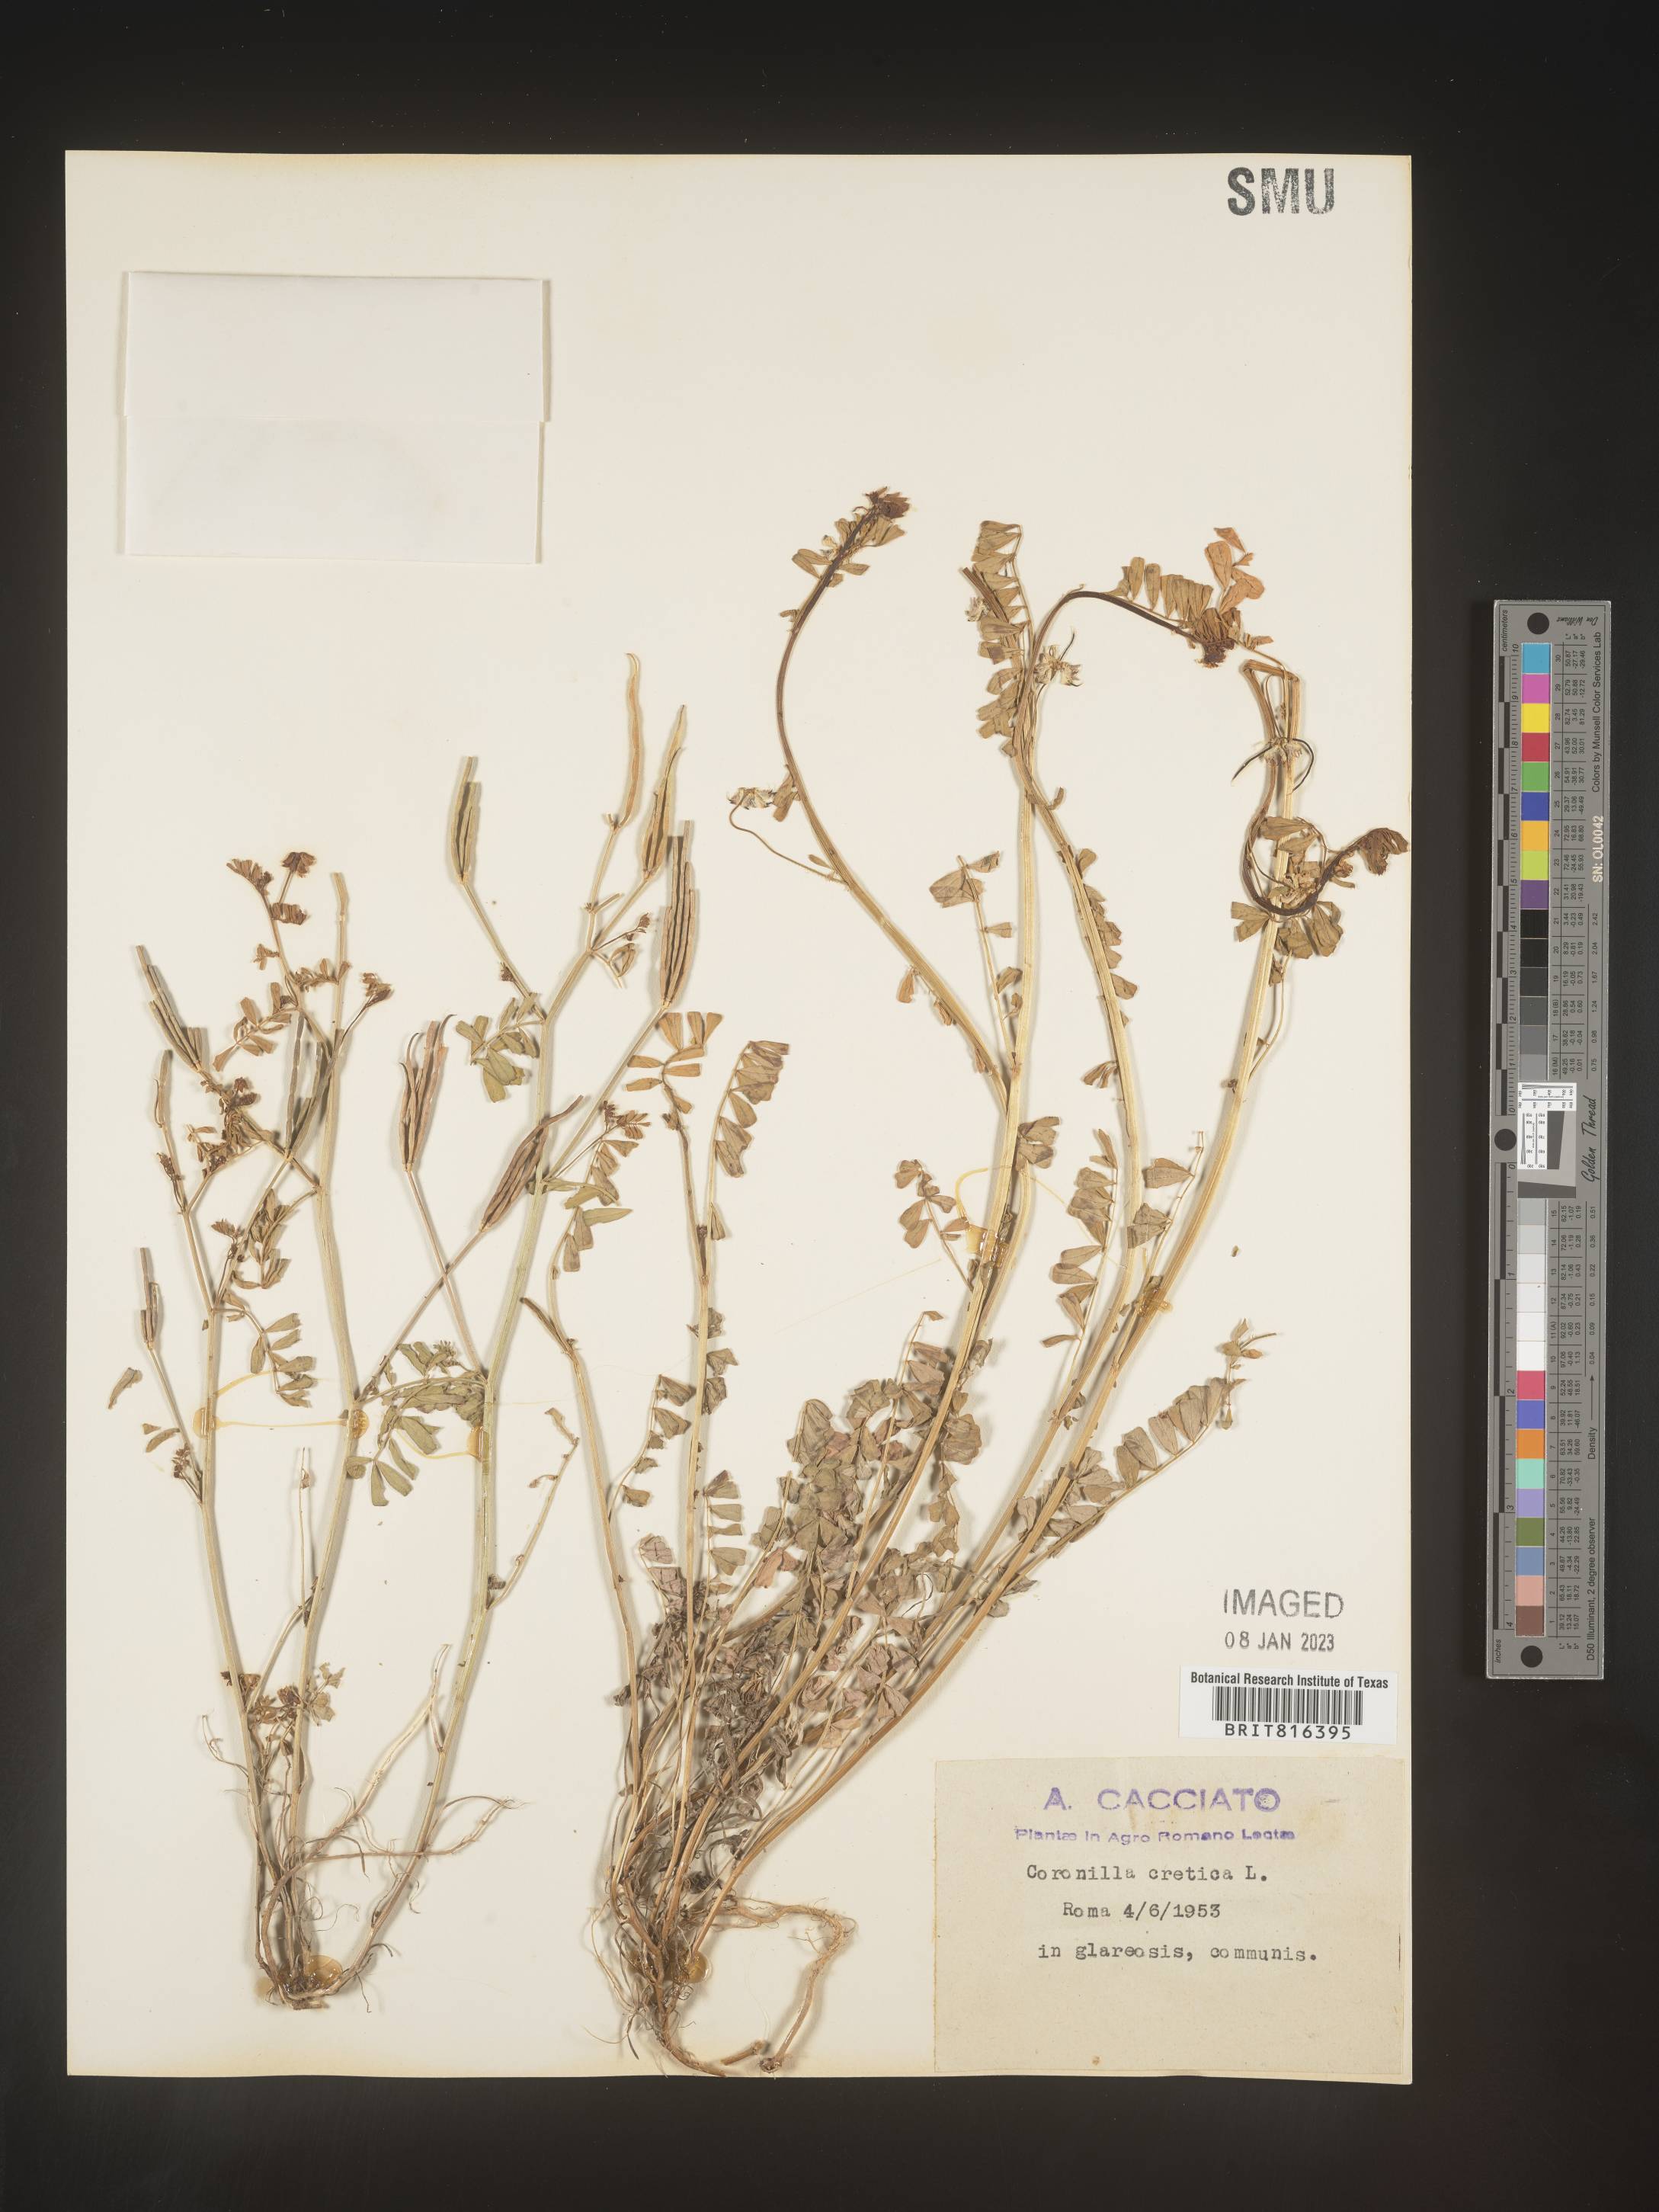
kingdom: Plantae
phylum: Tracheophyta
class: Magnoliopsida
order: Fabales
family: Fabaceae
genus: Coronilla
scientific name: Coronilla
